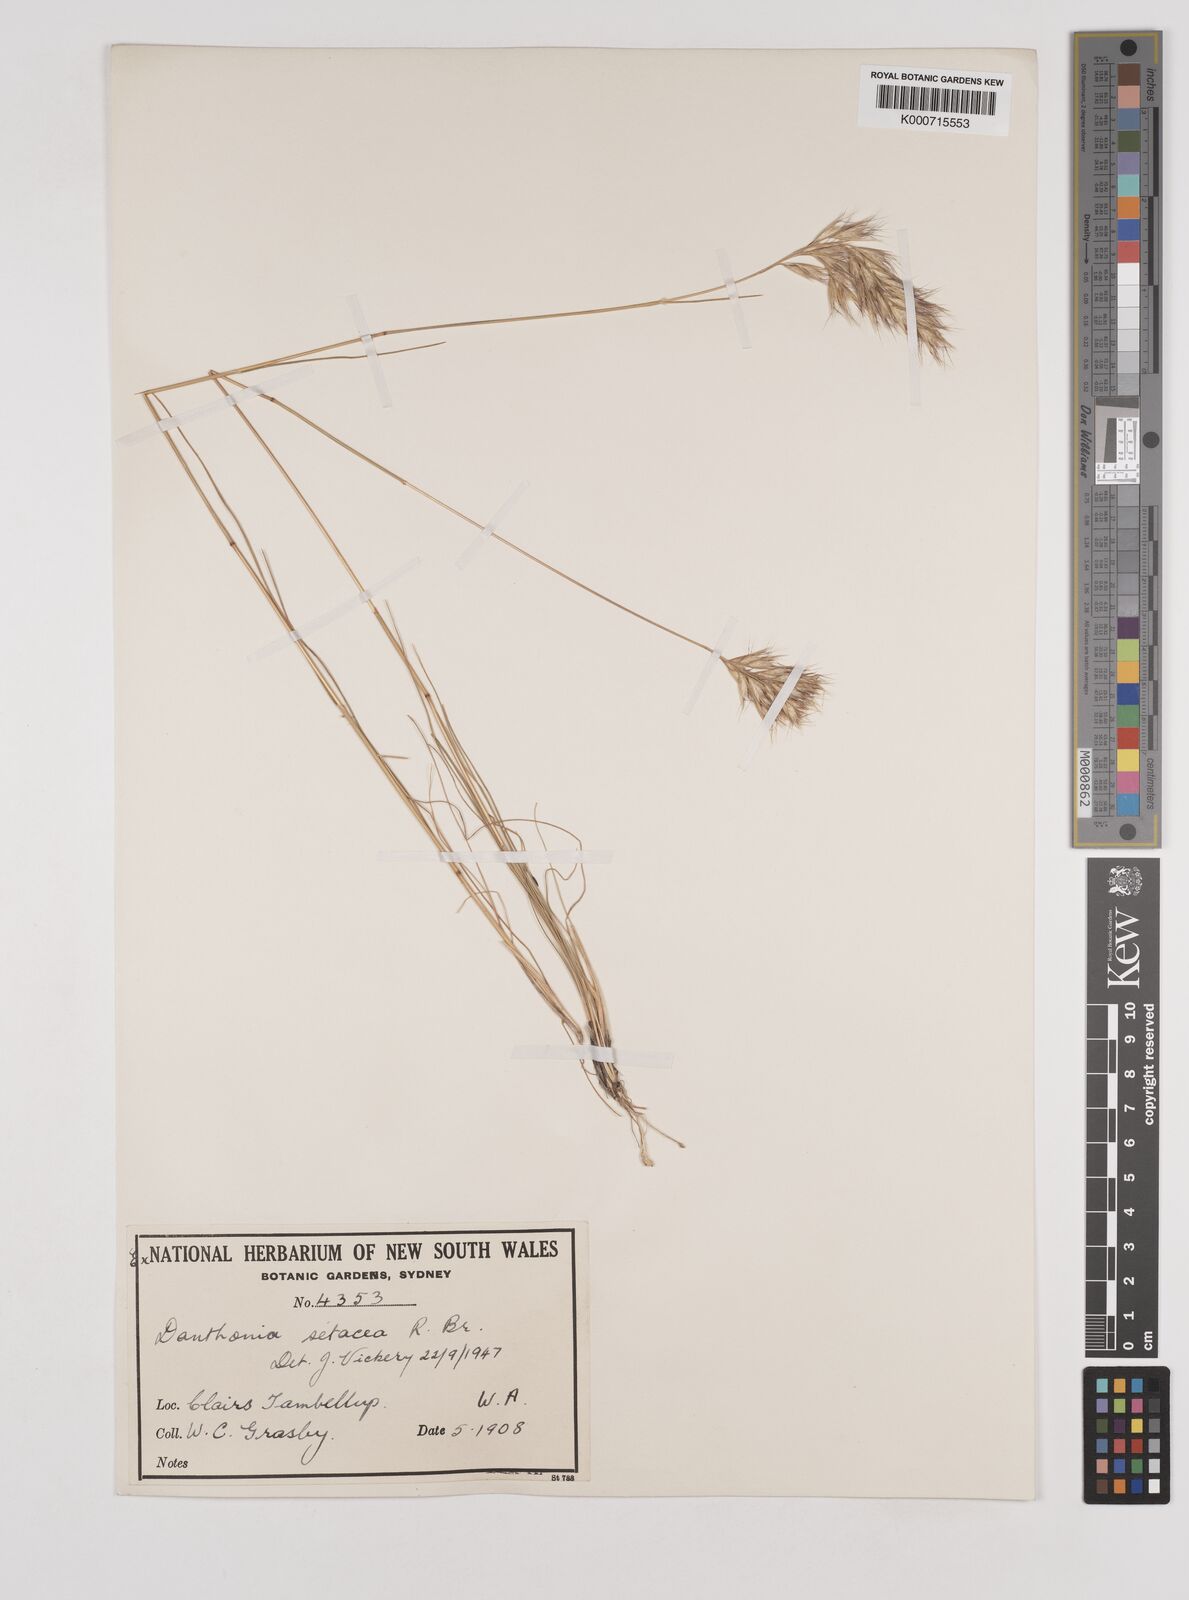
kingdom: Plantae
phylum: Tracheophyta
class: Liliopsida
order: Poales
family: Poaceae
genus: Rytidosperma
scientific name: Rytidosperma setaceum
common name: Small-flower wallaby grass
